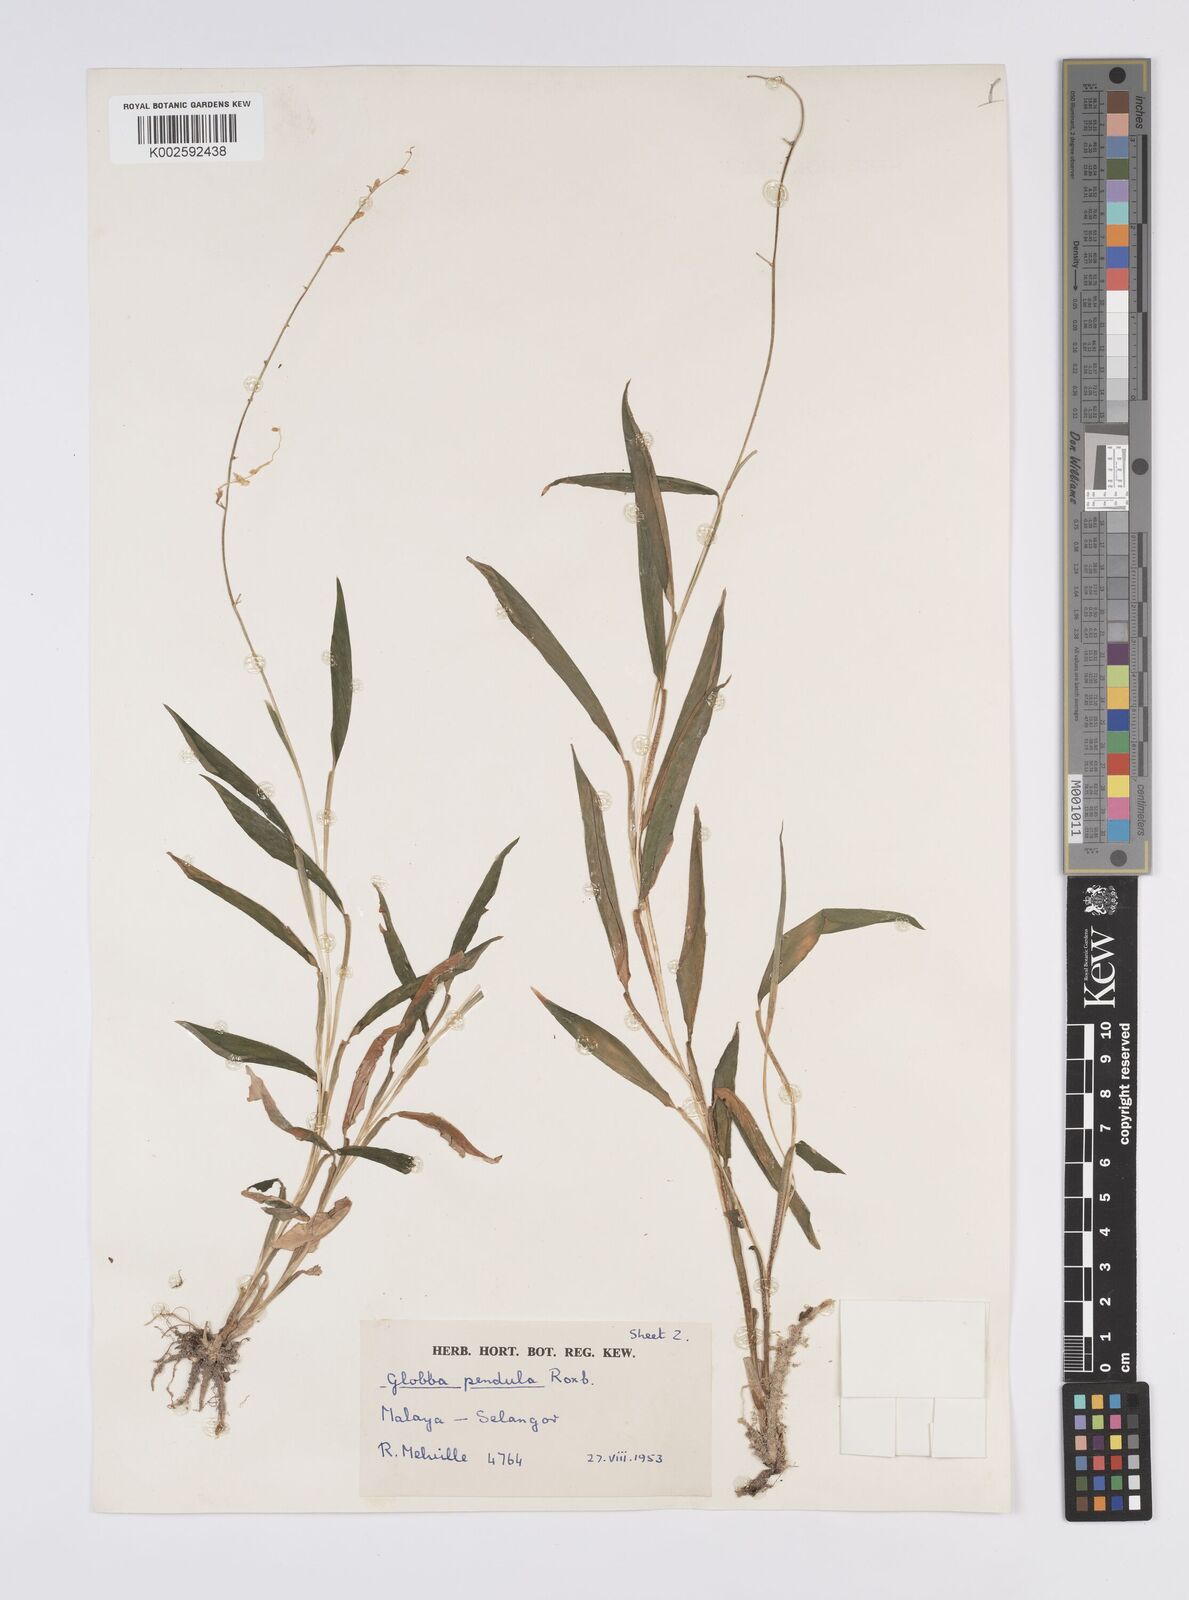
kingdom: Plantae
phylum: Tracheophyta
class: Liliopsida
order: Zingiberales
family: Zingiberaceae
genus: Globba
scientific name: Globba pendula
